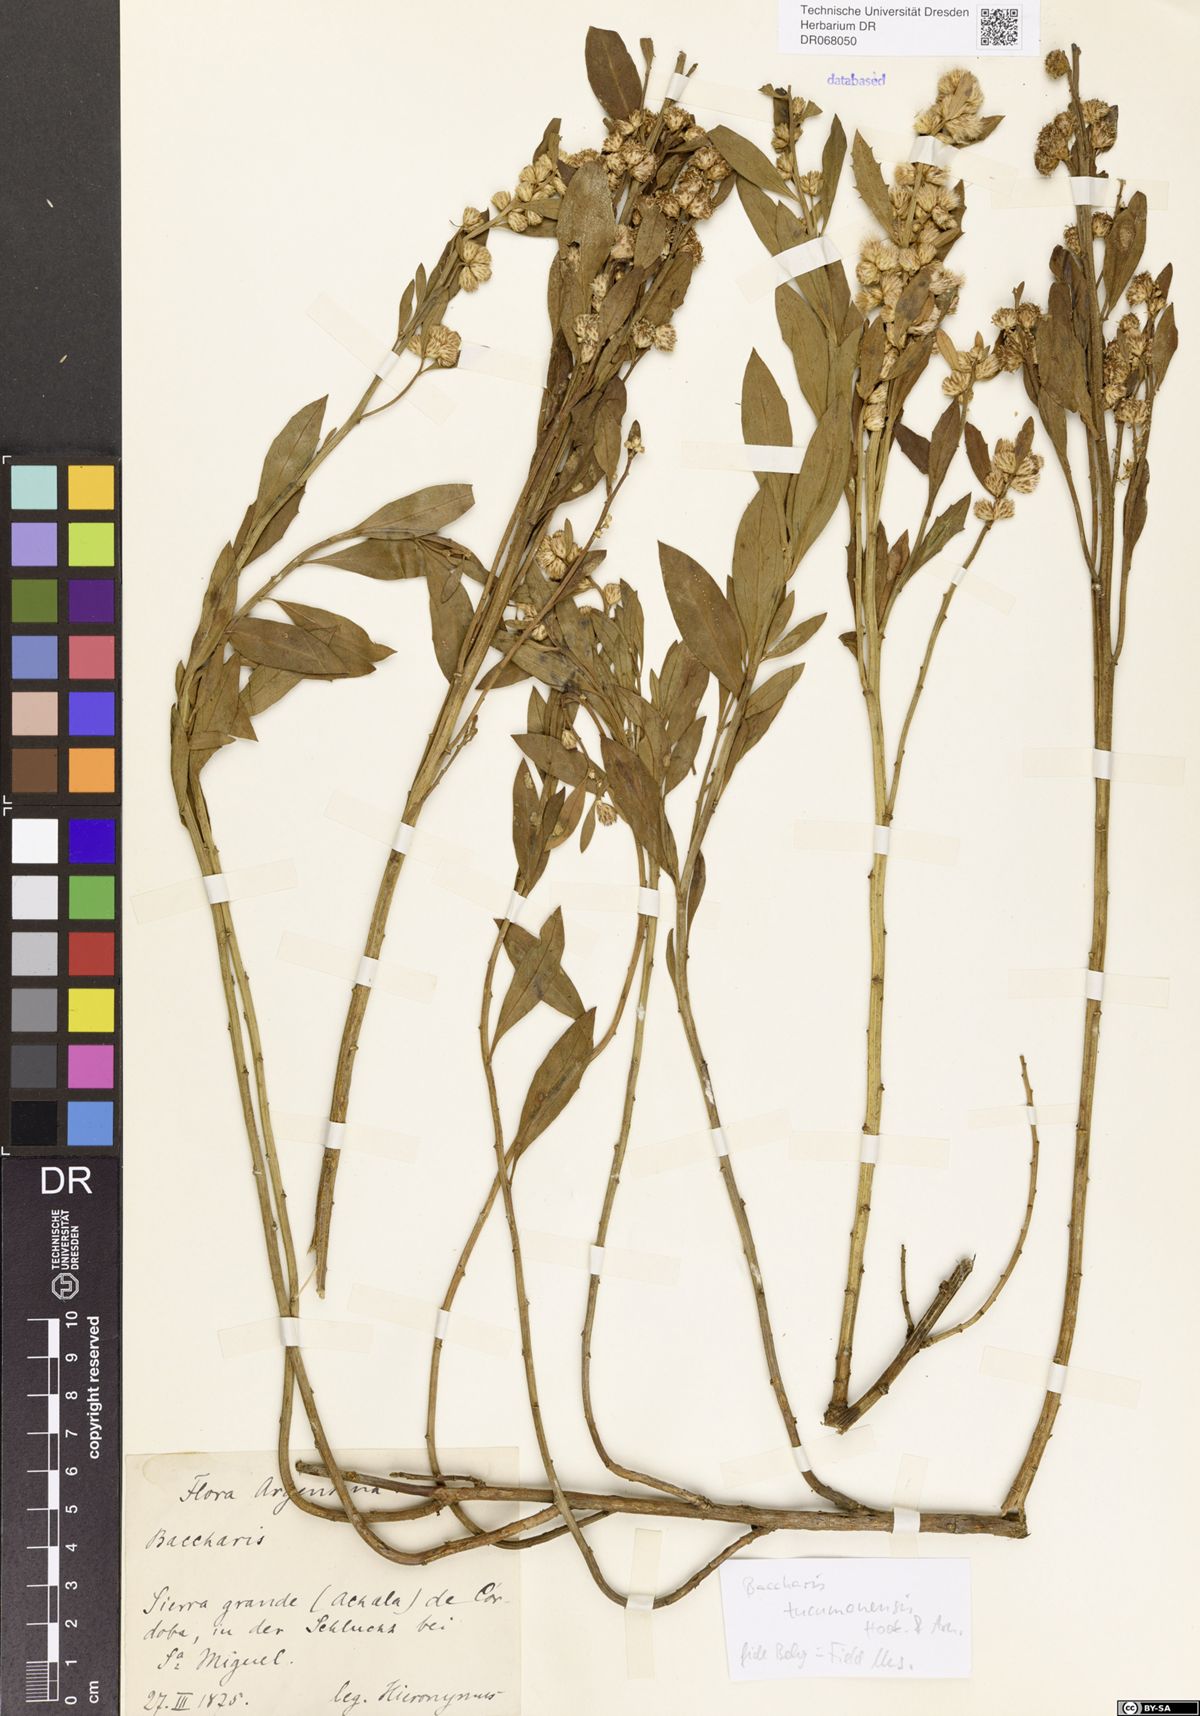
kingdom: Plantae
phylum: Tracheophyta
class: Magnoliopsida
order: Asterales
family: Asteraceae
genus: Baccharis
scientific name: Baccharis tucumanensis
